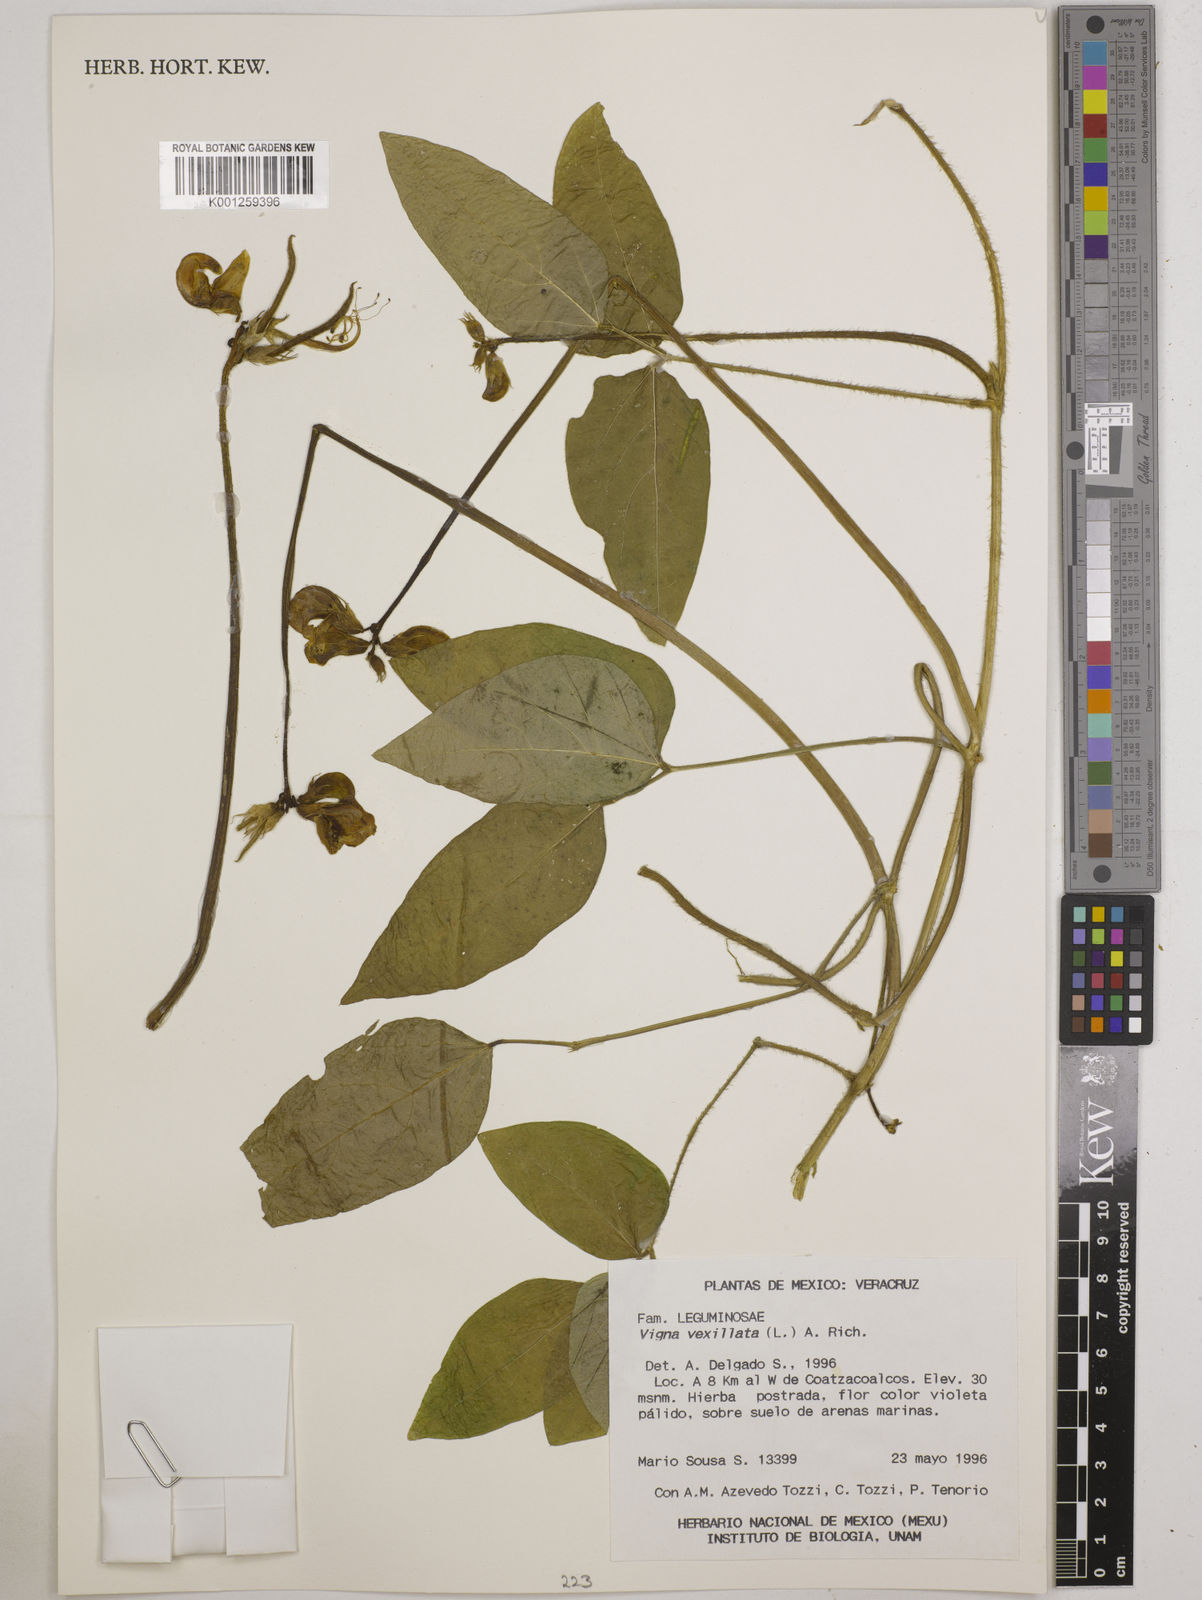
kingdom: Plantae
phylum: Tracheophyta
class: Magnoliopsida
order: Fabales
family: Fabaceae
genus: Vigna
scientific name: Vigna vexillata
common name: Zombi pea
